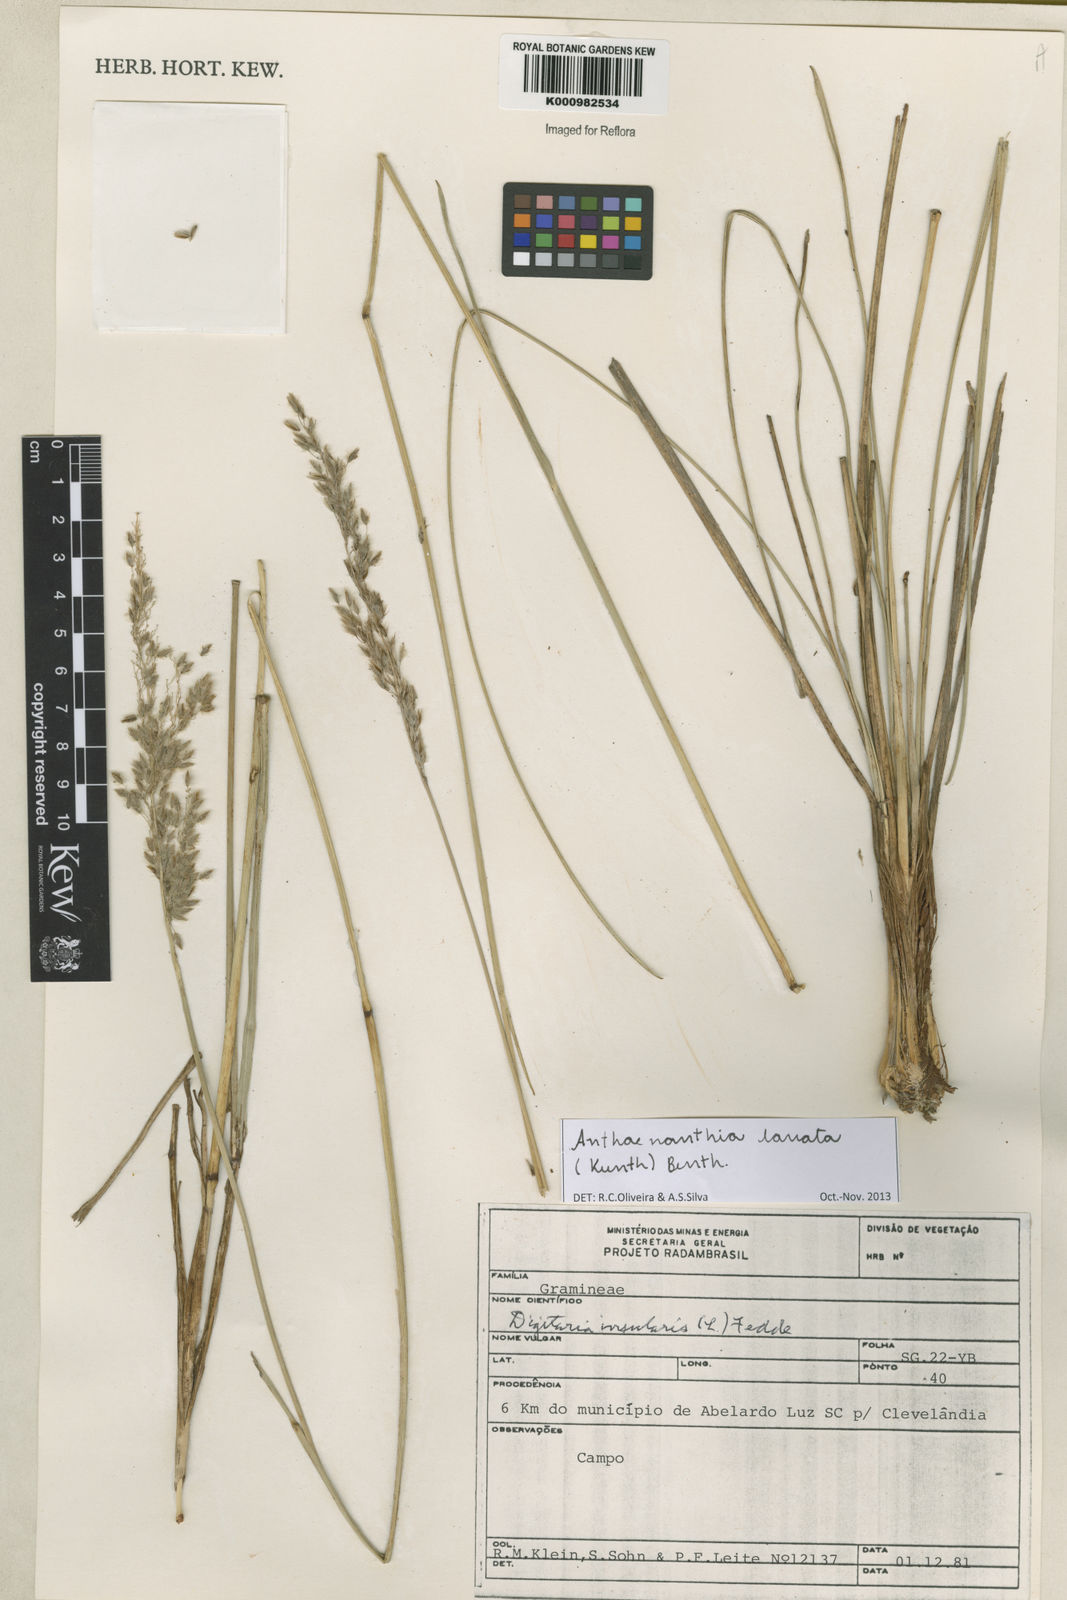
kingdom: Plantae
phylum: Tracheophyta
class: Liliopsida
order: Poales
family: Poaceae
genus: Anthenantia
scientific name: Anthenantia lanata
